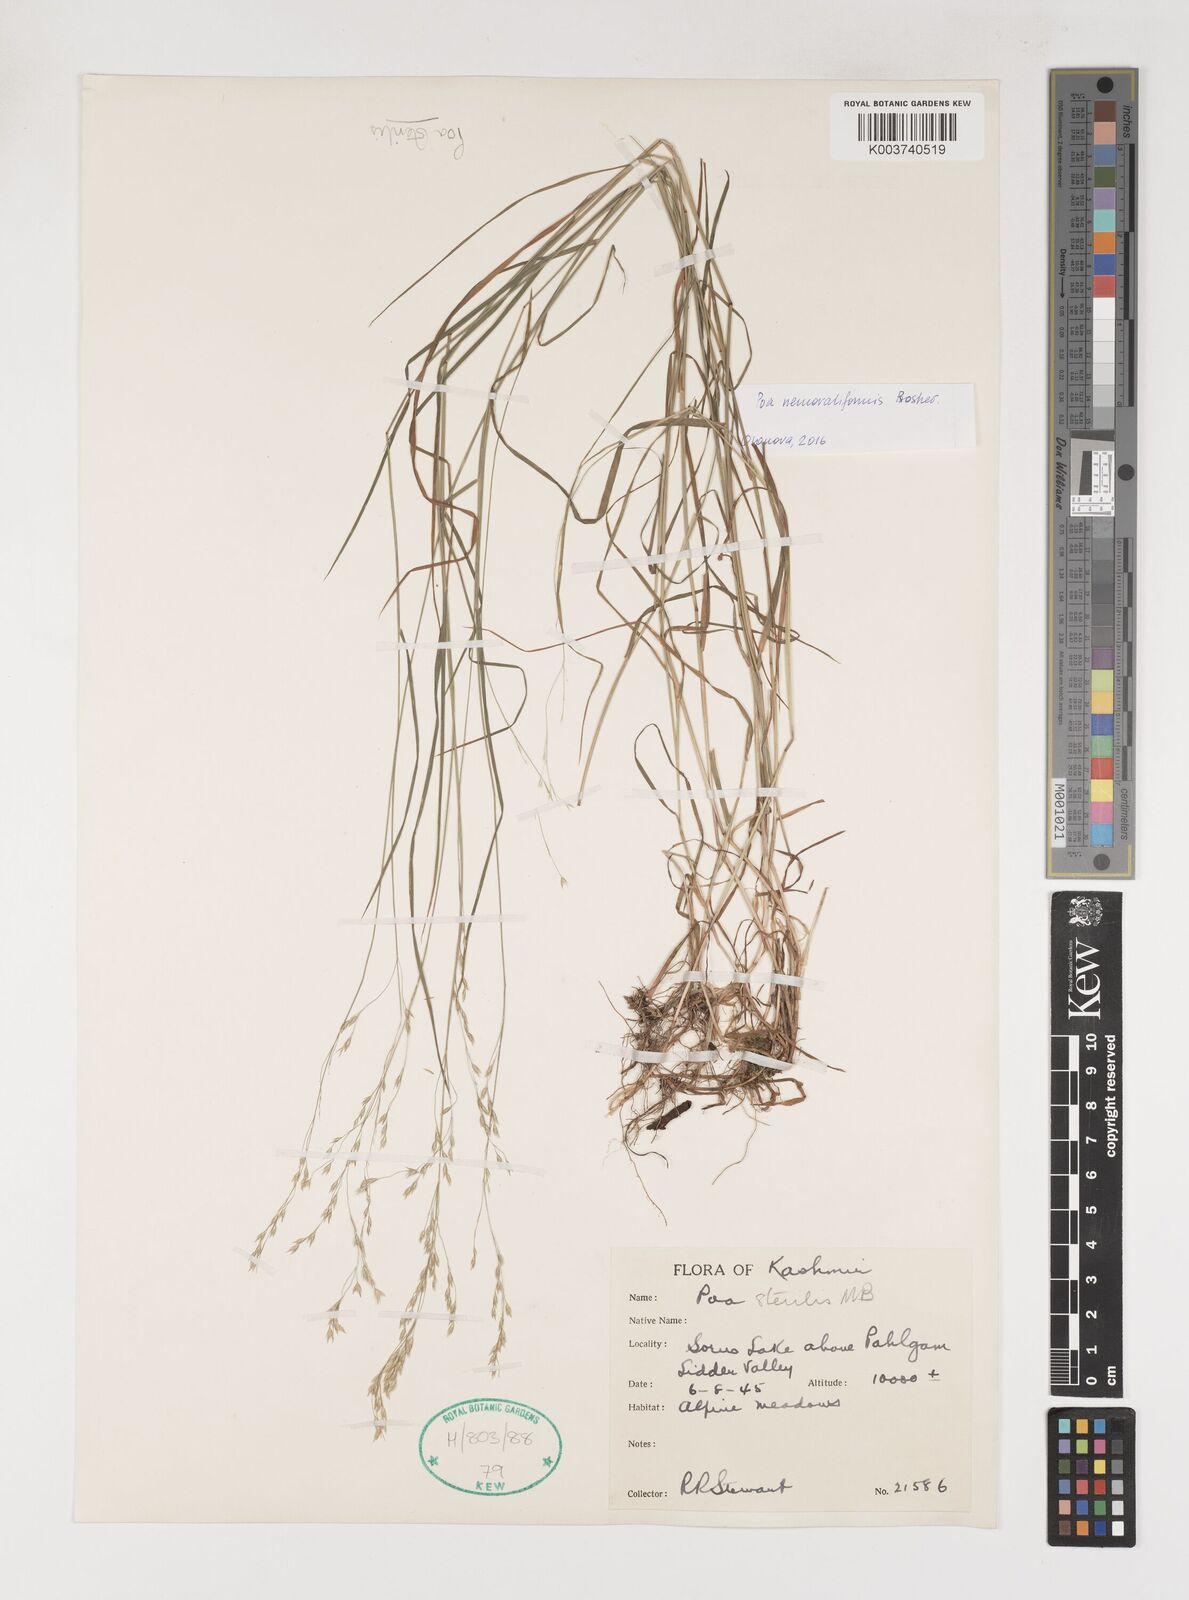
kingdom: Plantae
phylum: Tracheophyta
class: Liliopsida
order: Poales
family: Poaceae
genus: Poa
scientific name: Poa sterilis
